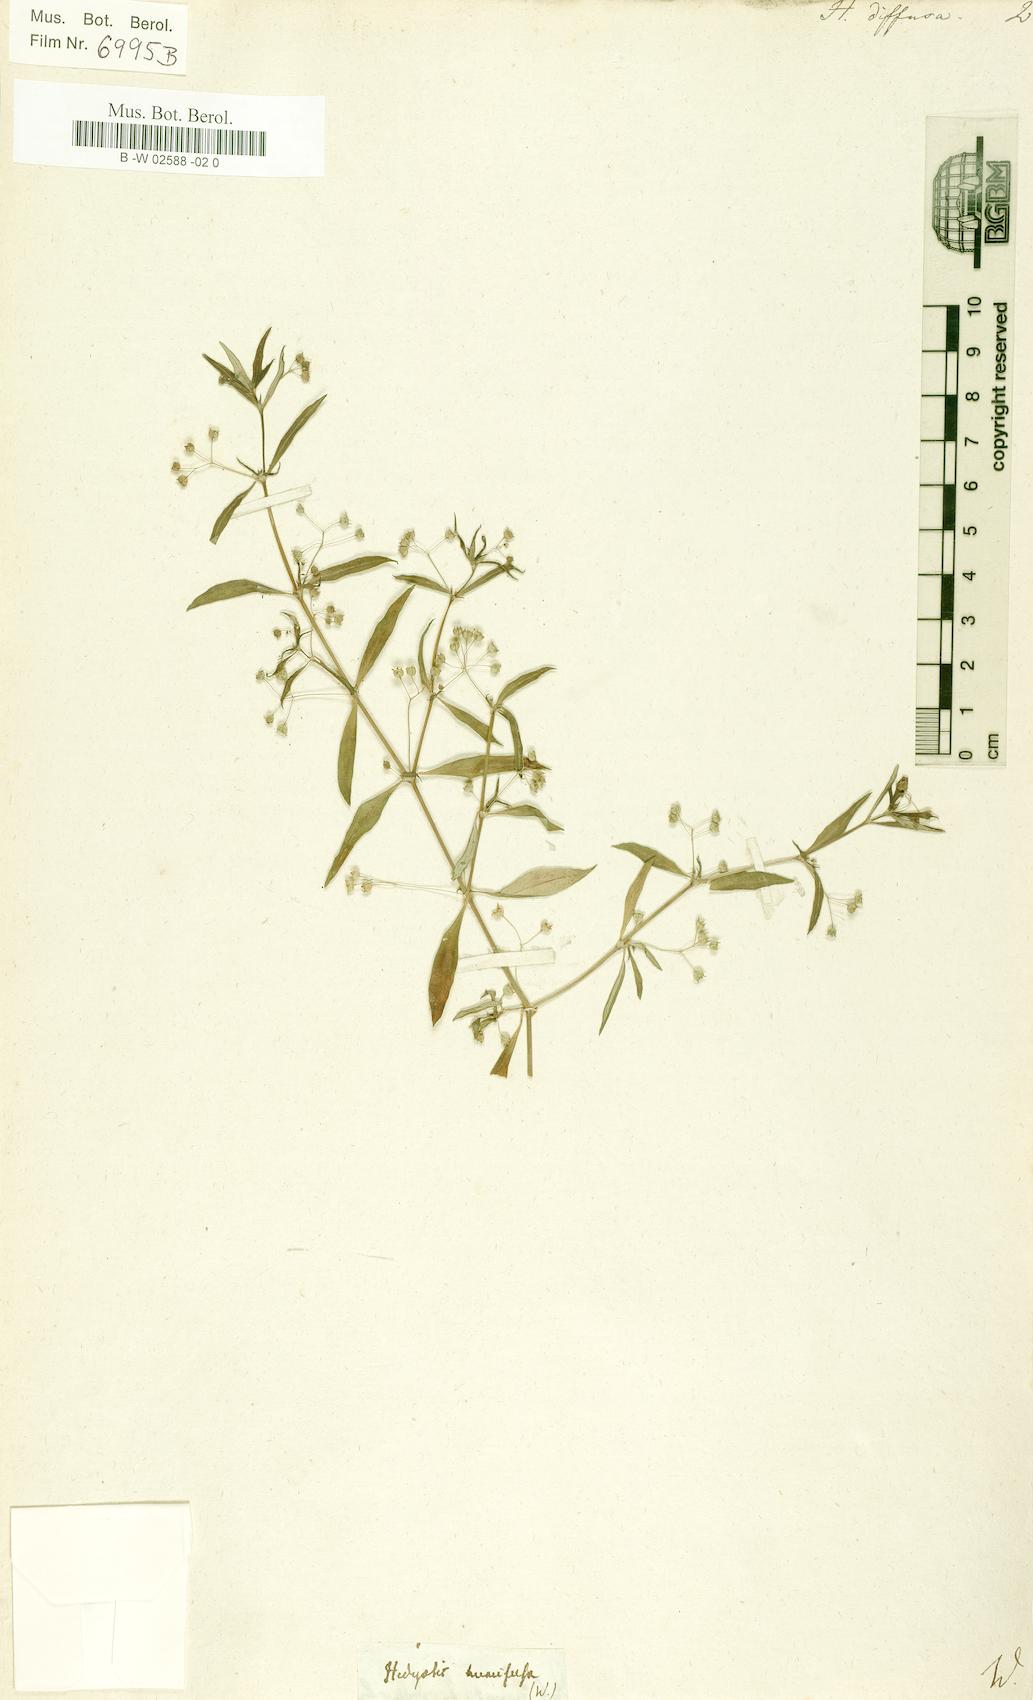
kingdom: Plantae
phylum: Tracheophyta
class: Magnoliopsida
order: Gentianales
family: Rubiaceae
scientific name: Rubiaceae
